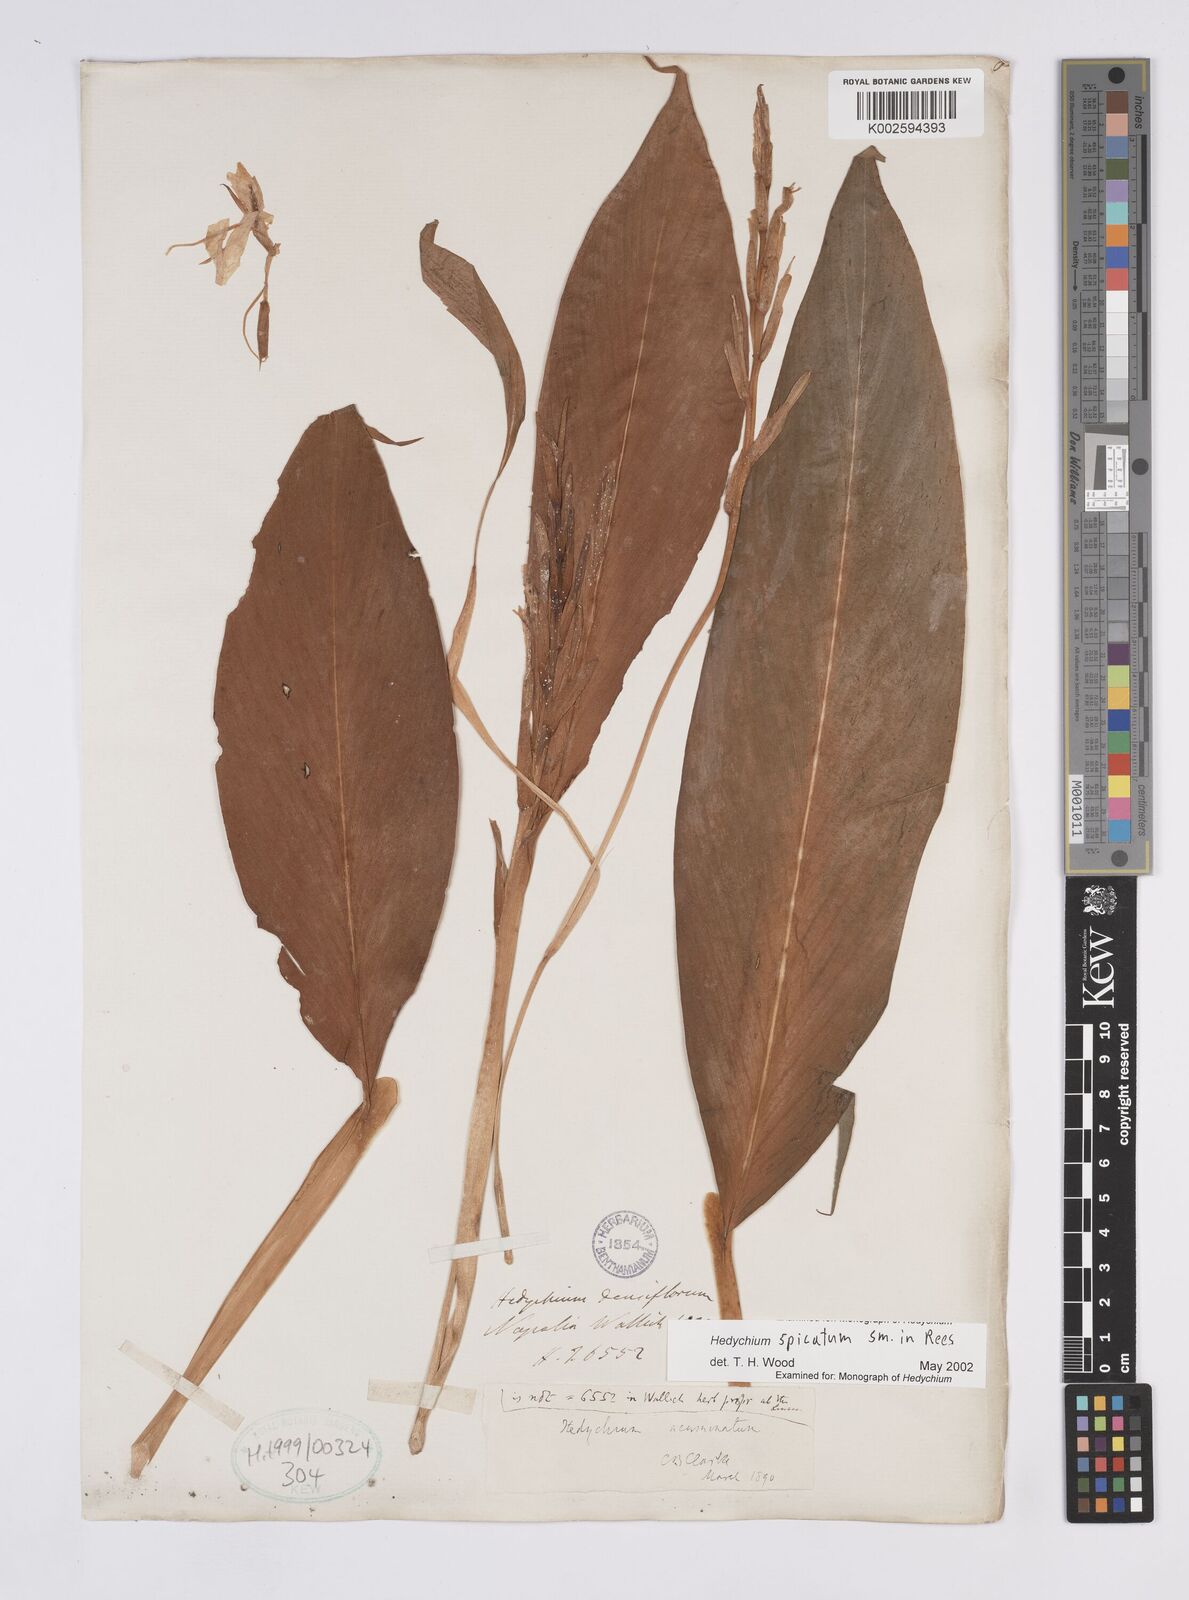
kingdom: Plantae
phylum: Tracheophyta
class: Liliopsida
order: Zingiberales
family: Zingiberaceae
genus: Hedychium
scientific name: Hedychium spicatum
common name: Spiked ginger-lily
